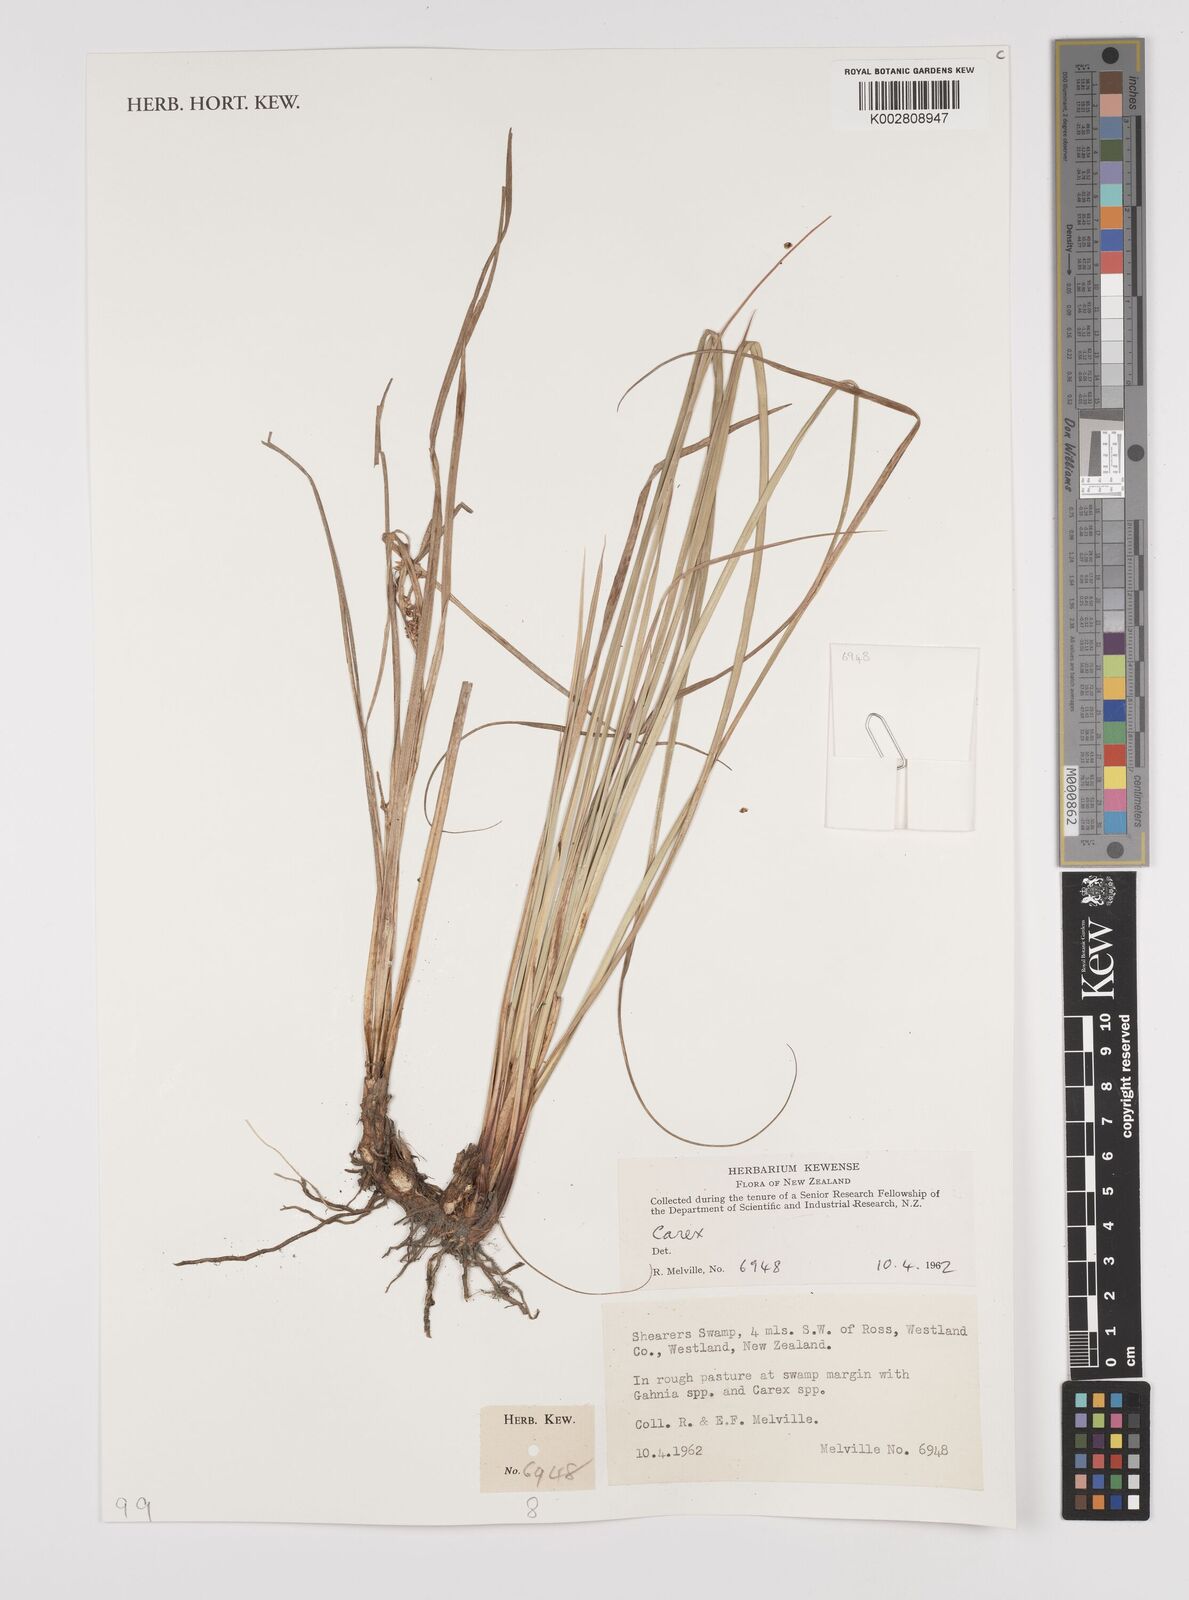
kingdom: Plantae
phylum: Tracheophyta
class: Liliopsida
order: Poales
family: Cyperaceae
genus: Carex
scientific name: Carex
